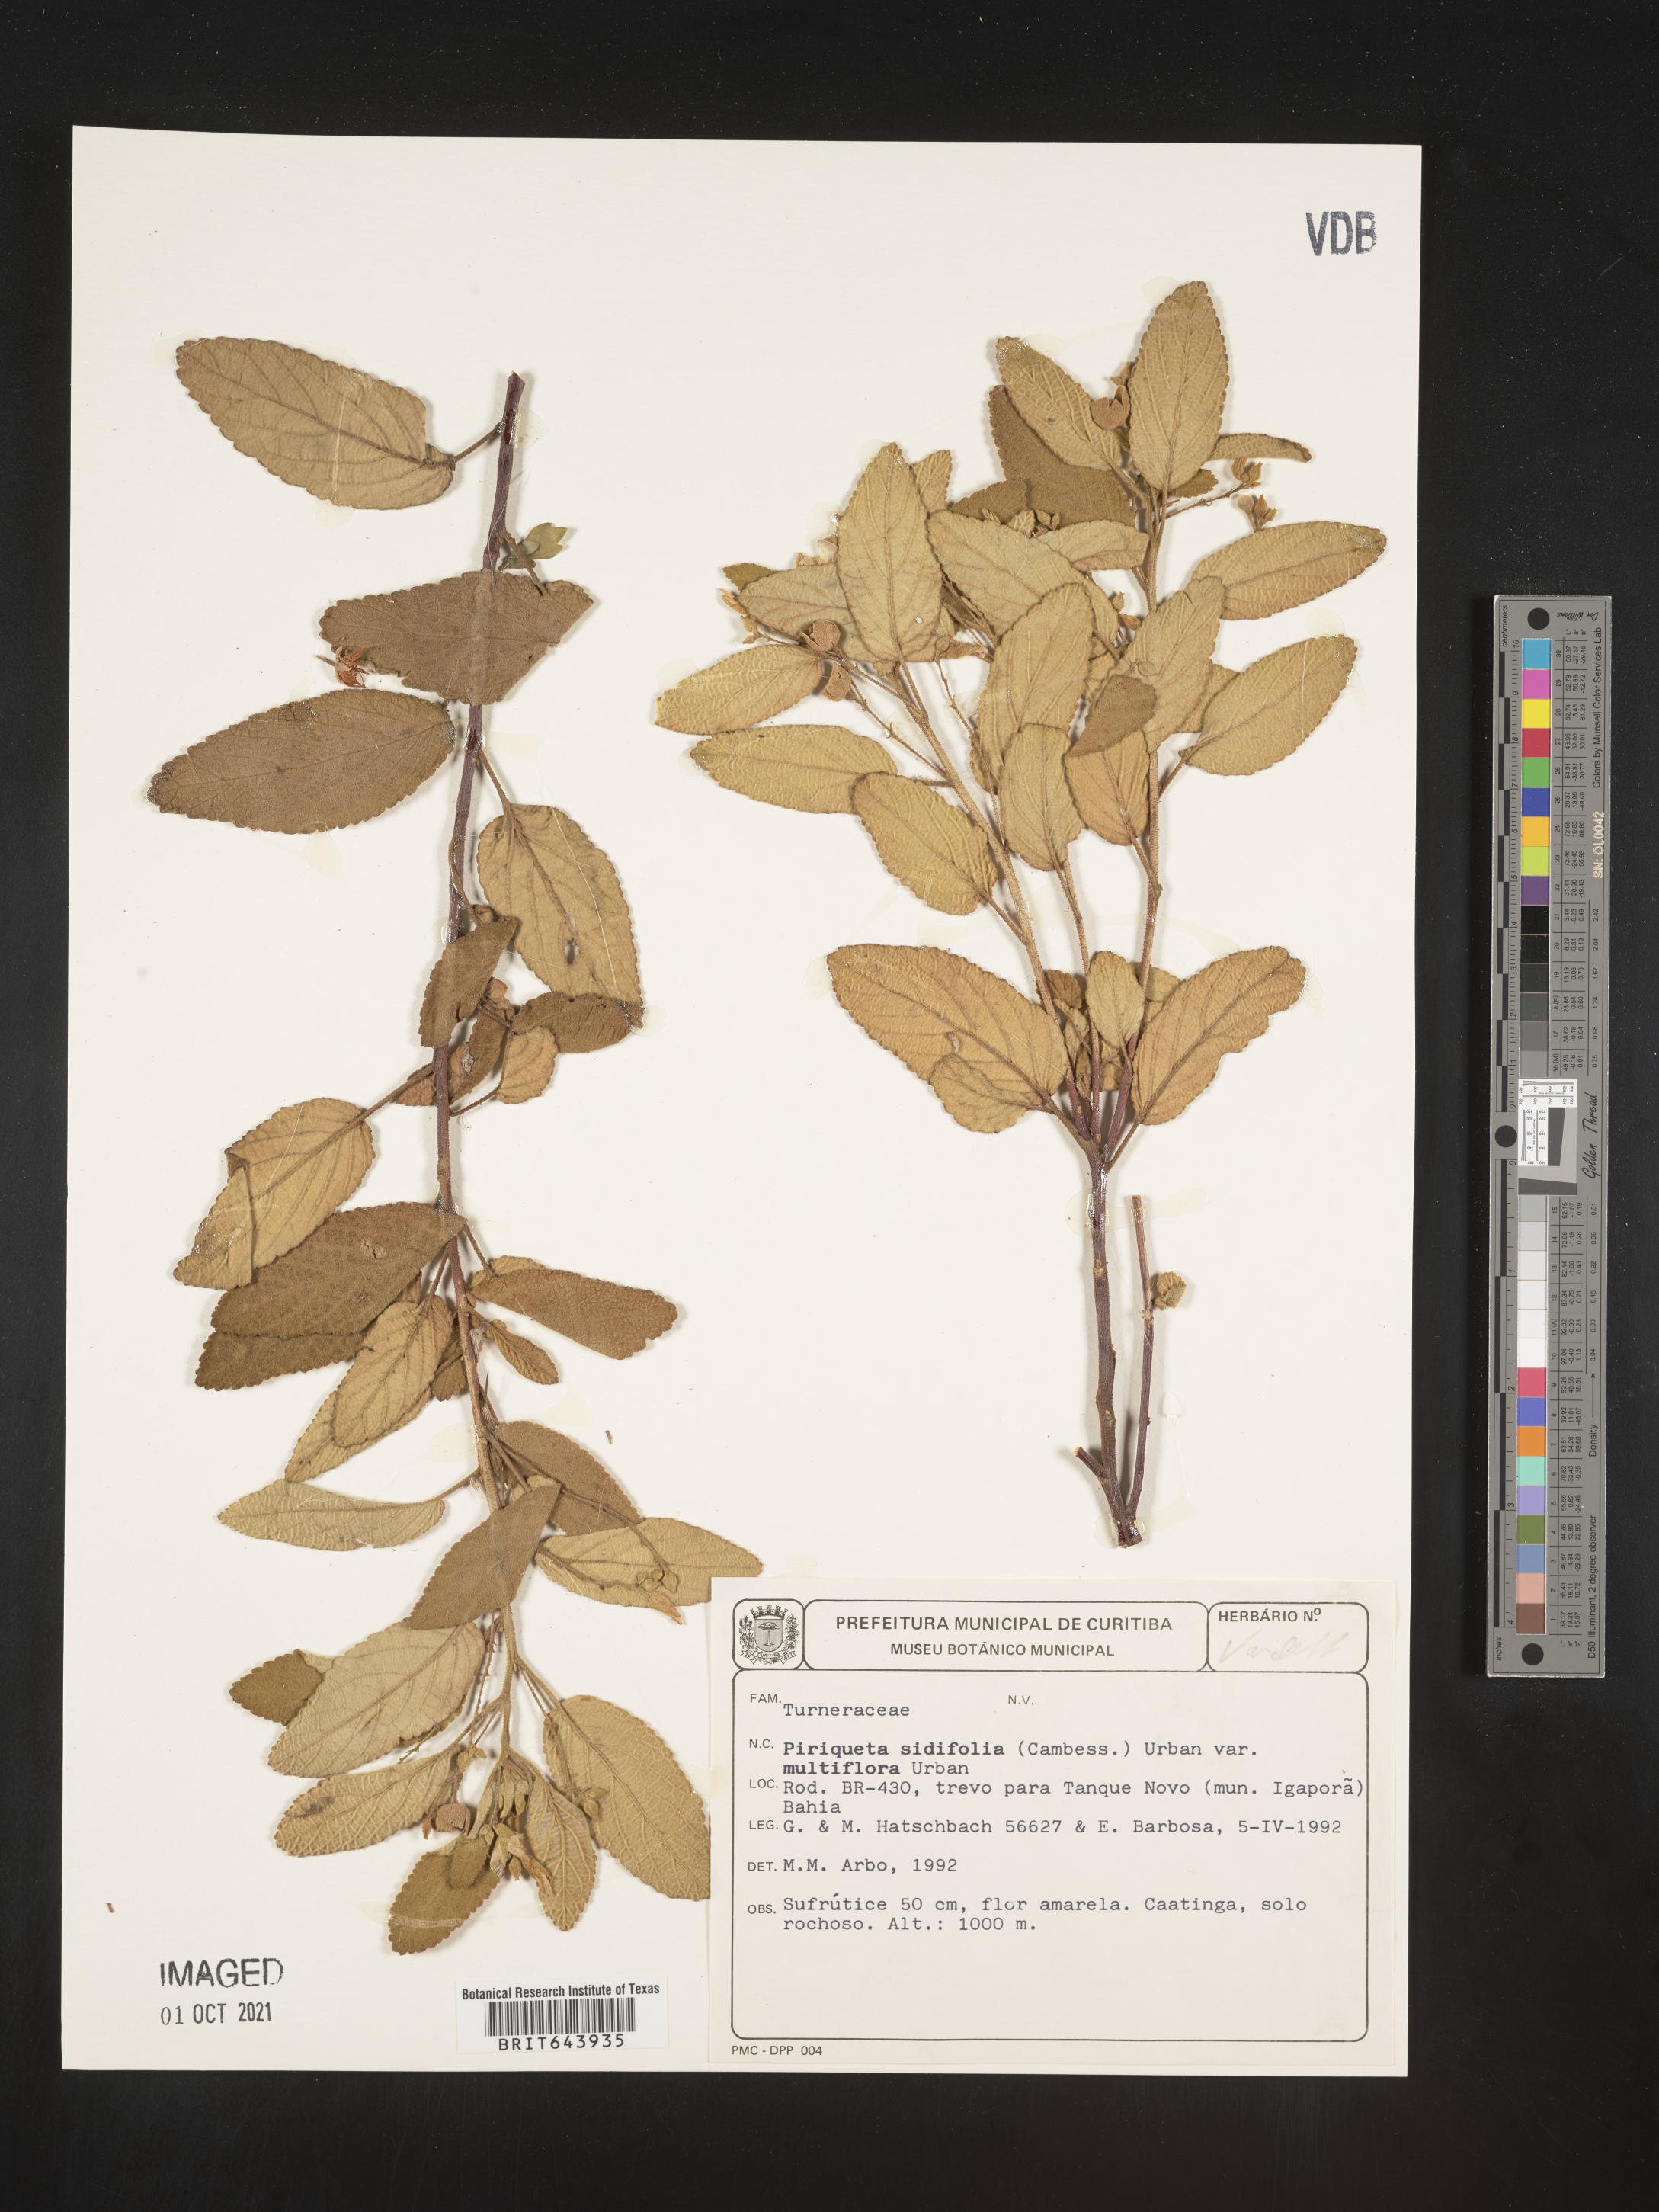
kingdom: Plantae
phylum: Tracheophyta
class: Magnoliopsida
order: Malpighiales
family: Turneraceae
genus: Piriqueta
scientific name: Piriqueta
